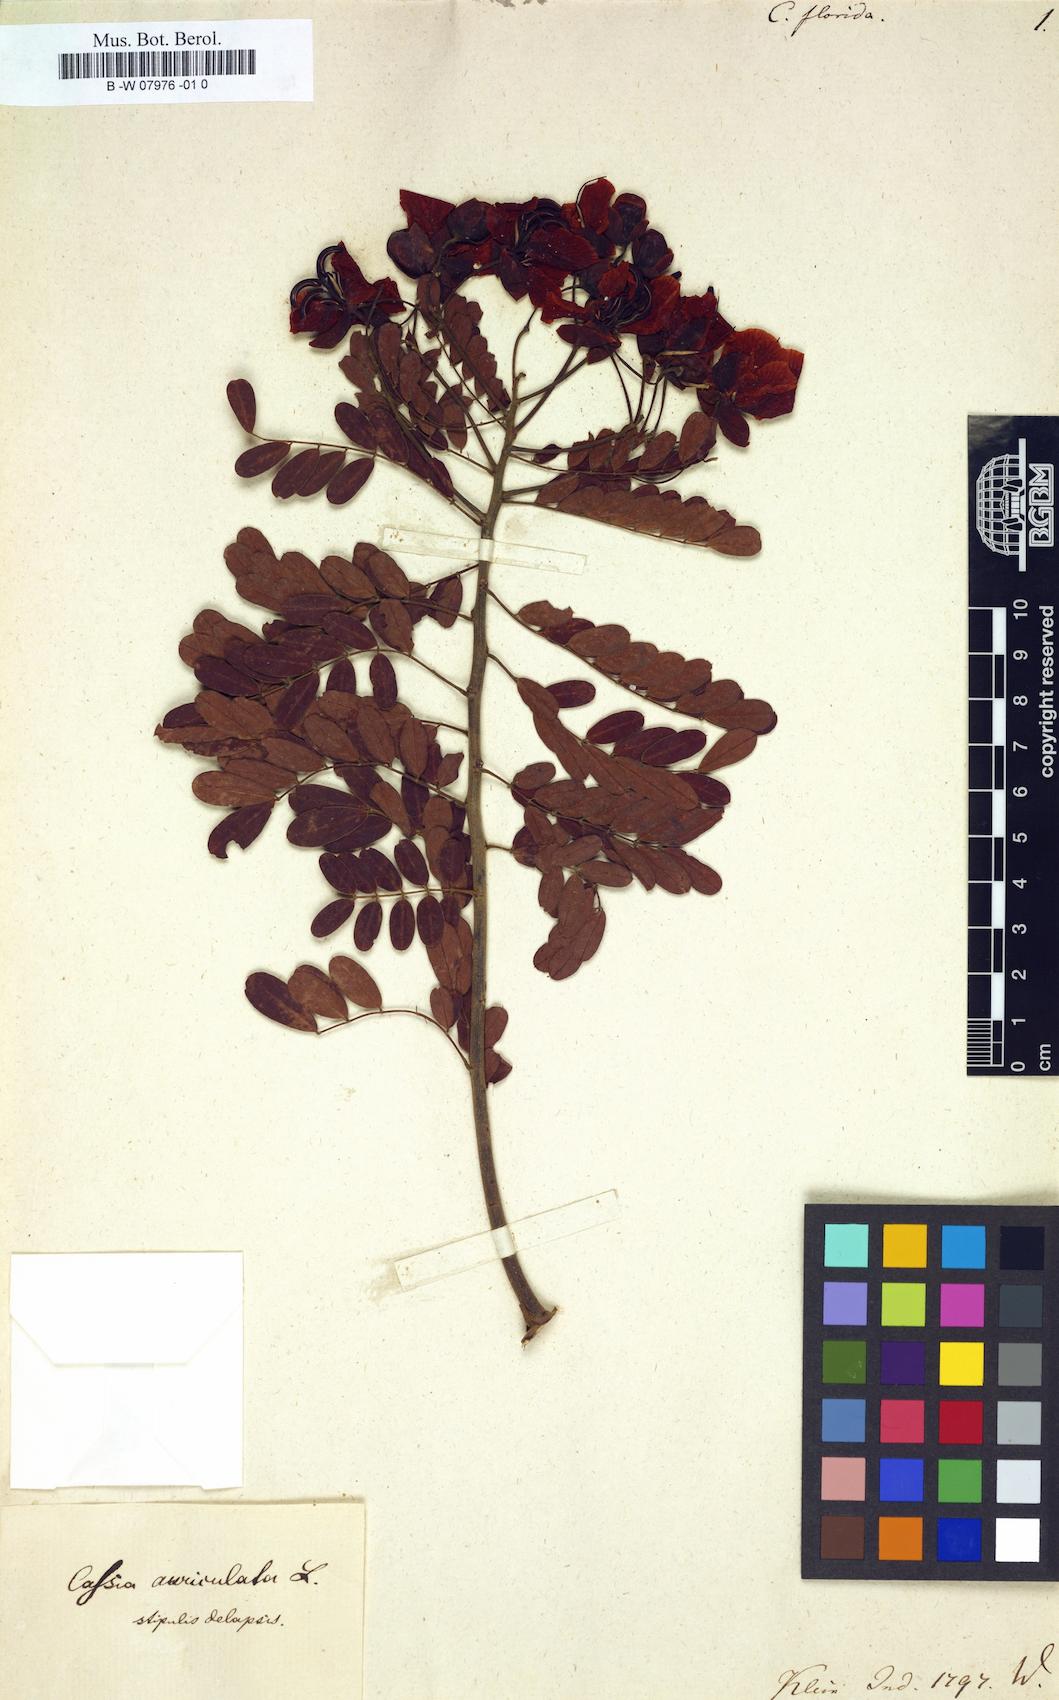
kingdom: Plantae
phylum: Tracheophyta
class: Magnoliopsida
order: Fabales
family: Fabaceae
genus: Senna
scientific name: Senna siamea
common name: Siamese cassia
